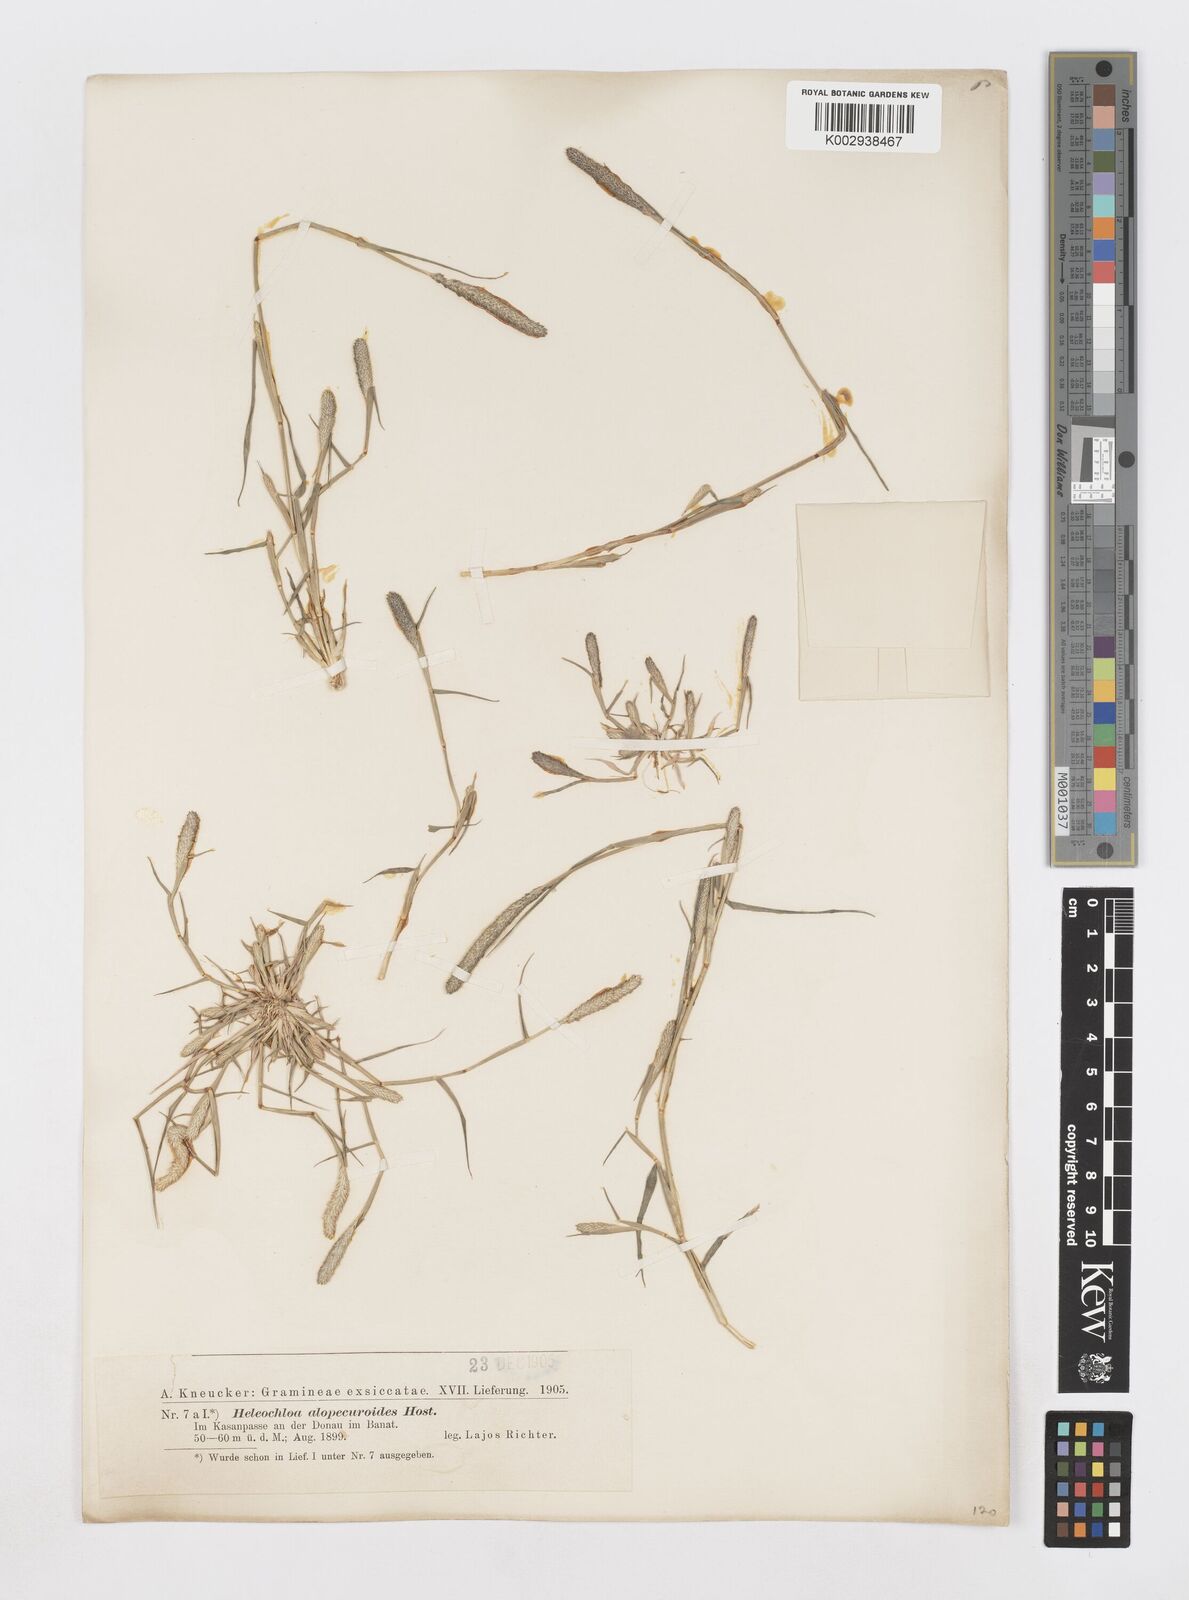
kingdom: Plantae
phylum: Tracheophyta
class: Liliopsida
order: Poales
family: Poaceae
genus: Sporobolus
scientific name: Sporobolus alopecuroides
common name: Foxtail pricklegrass
